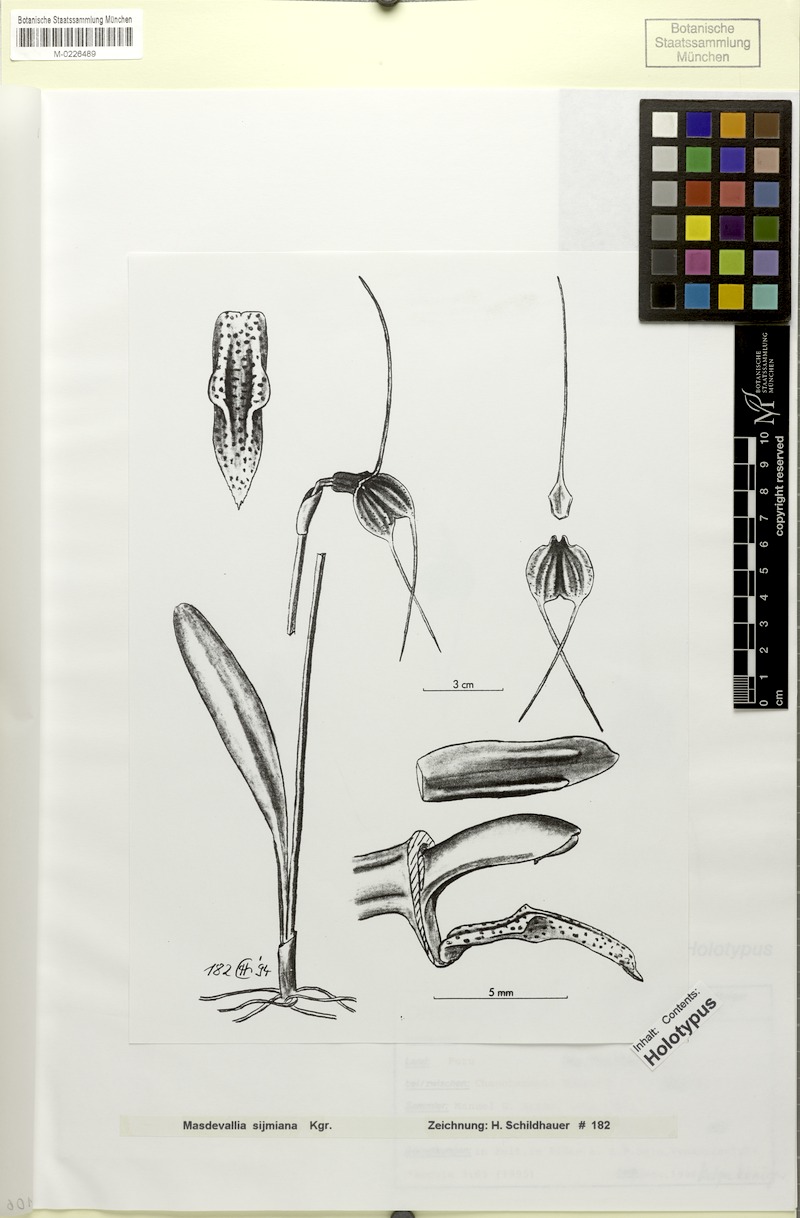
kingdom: Plantae
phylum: Tracheophyta
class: Liliopsida
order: Asparagales
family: Orchidaceae
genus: Masdevallia
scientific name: Masdevallia posadae
